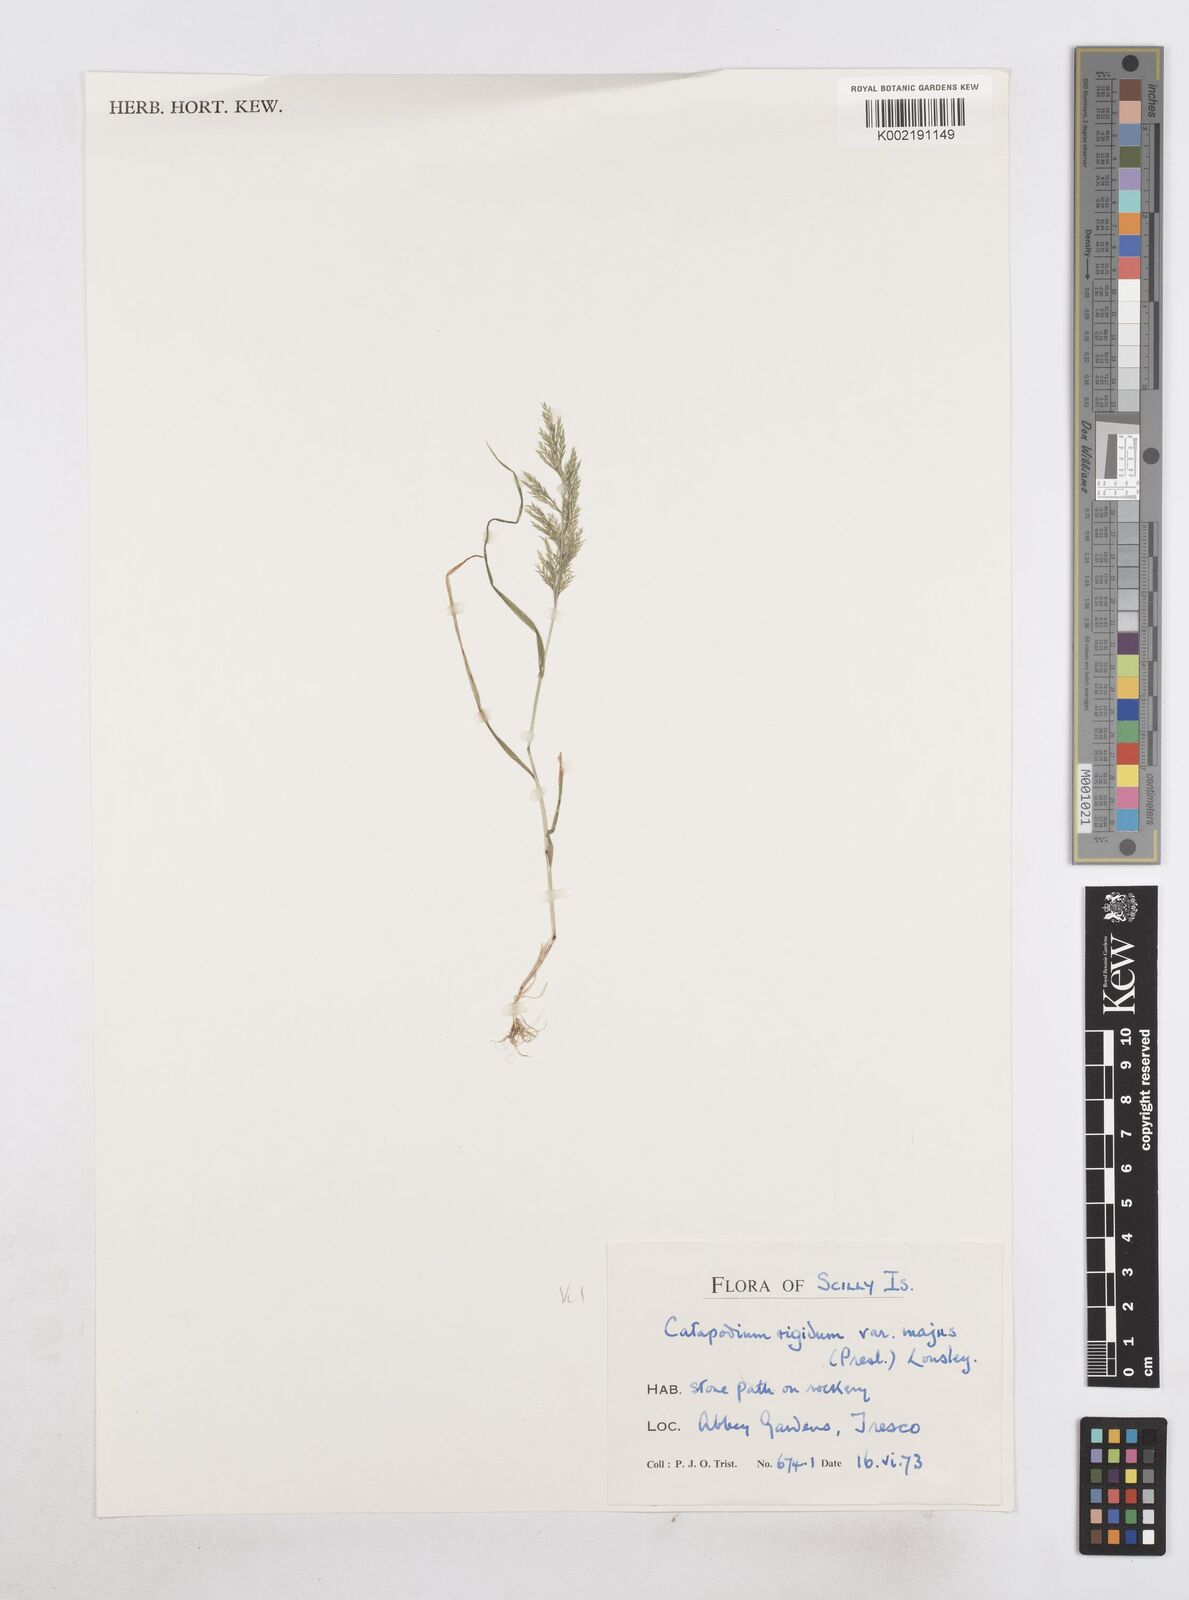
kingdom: Plantae
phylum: Tracheophyta
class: Liliopsida
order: Poales
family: Poaceae
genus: Catapodium
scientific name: Catapodium rigidum
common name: Fern-grass
